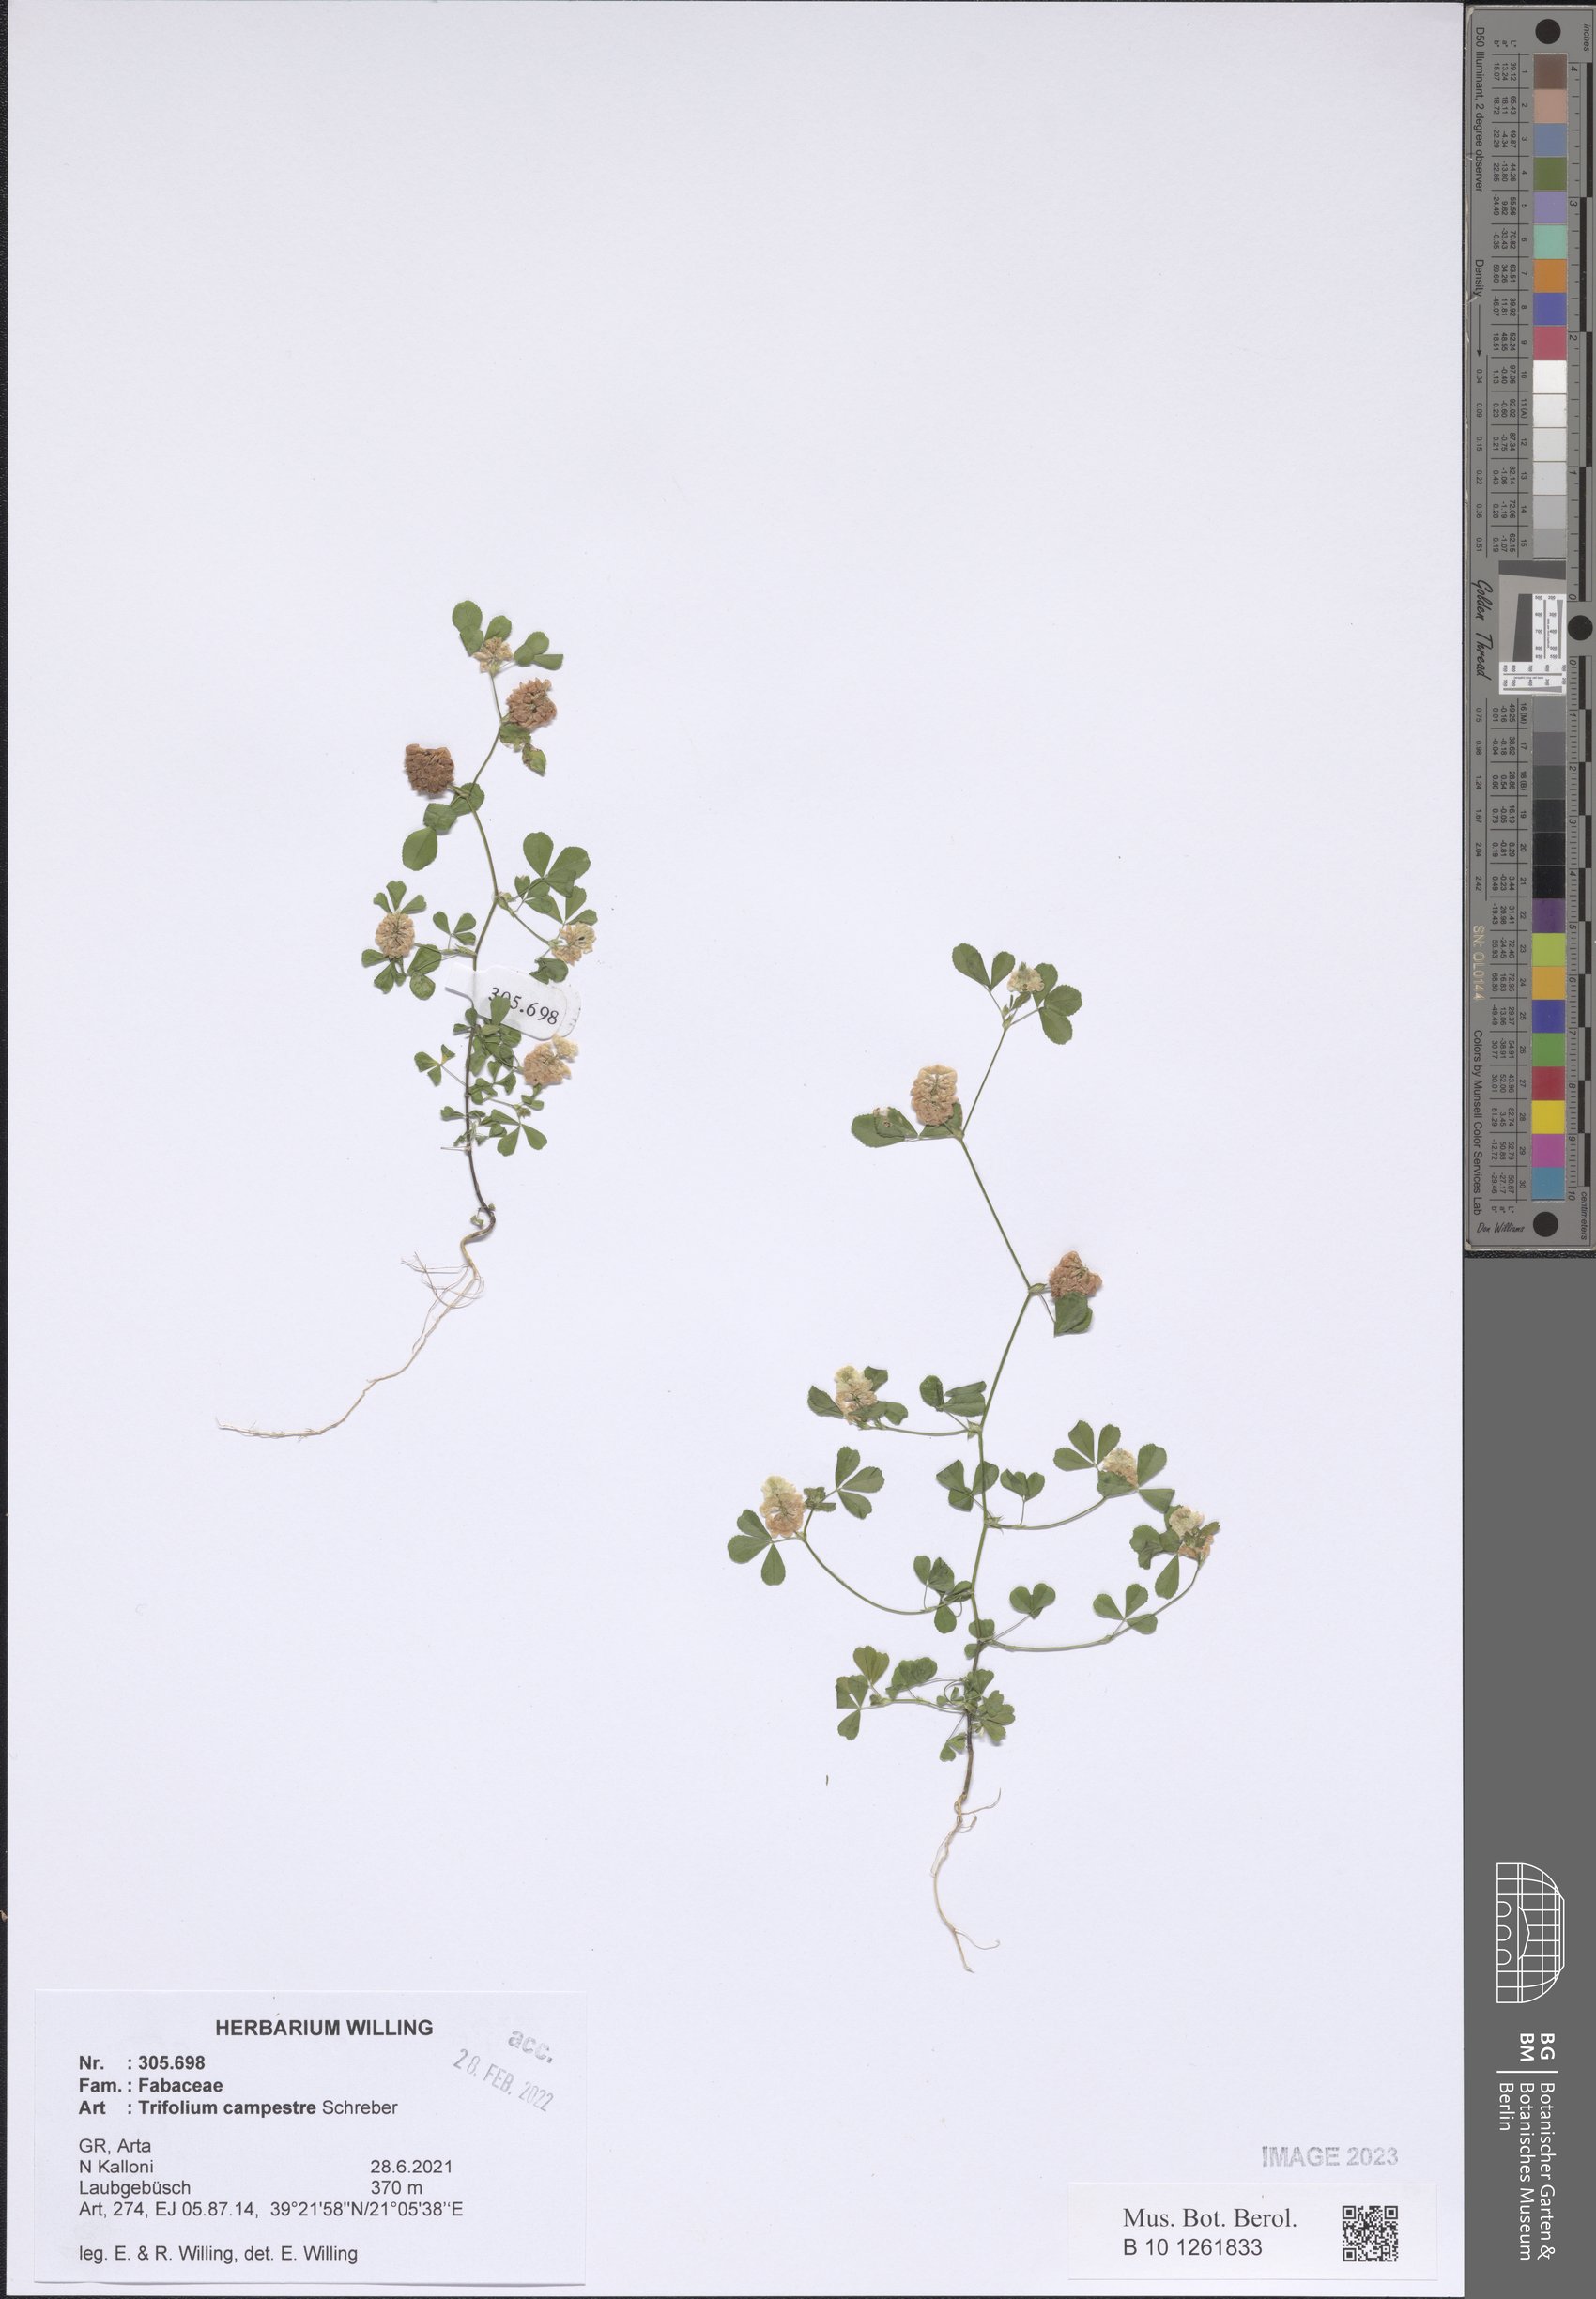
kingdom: Plantae
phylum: Tracheophyta
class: Magnoliopsida
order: Fabales
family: Fabaceae
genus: Trifolium
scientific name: Trifolium campestre
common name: Field clover
